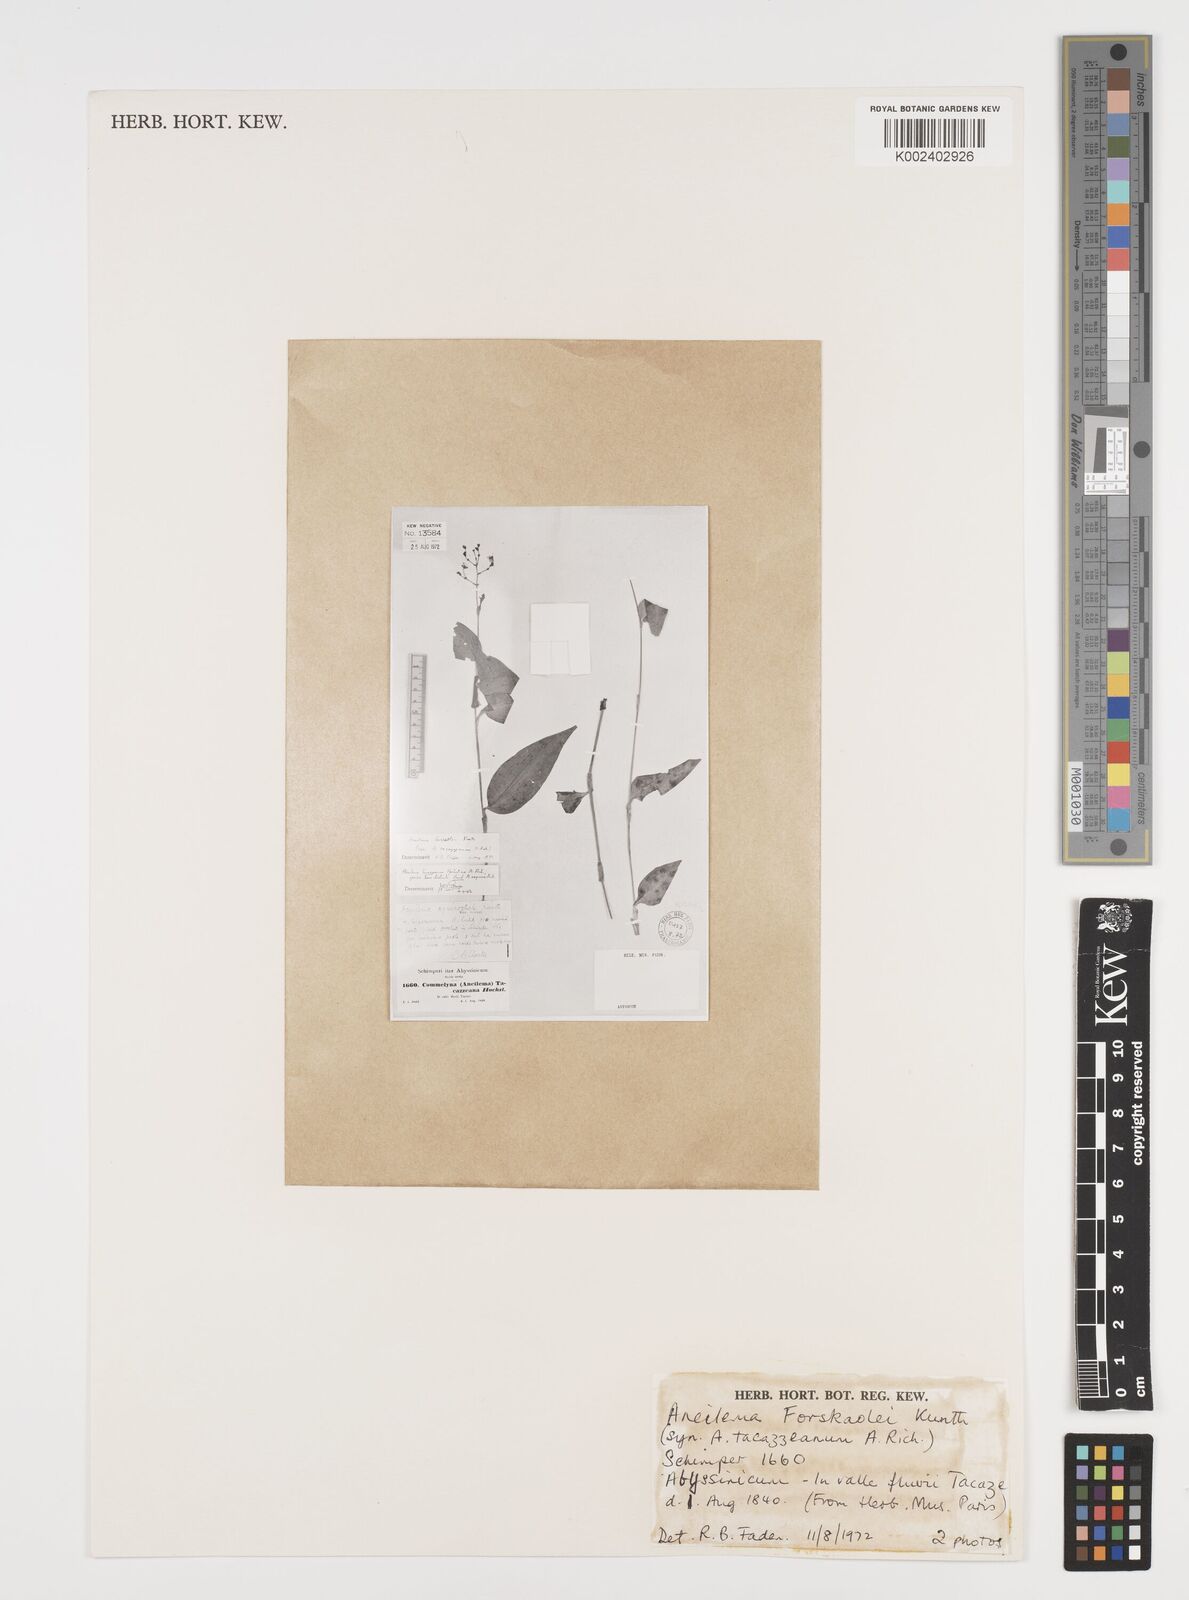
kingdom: Plantae
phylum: Tracheophyta
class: Liliopsida
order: Commelinales
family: Commelinaceae
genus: Aneilema
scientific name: Aneilema forskalii
